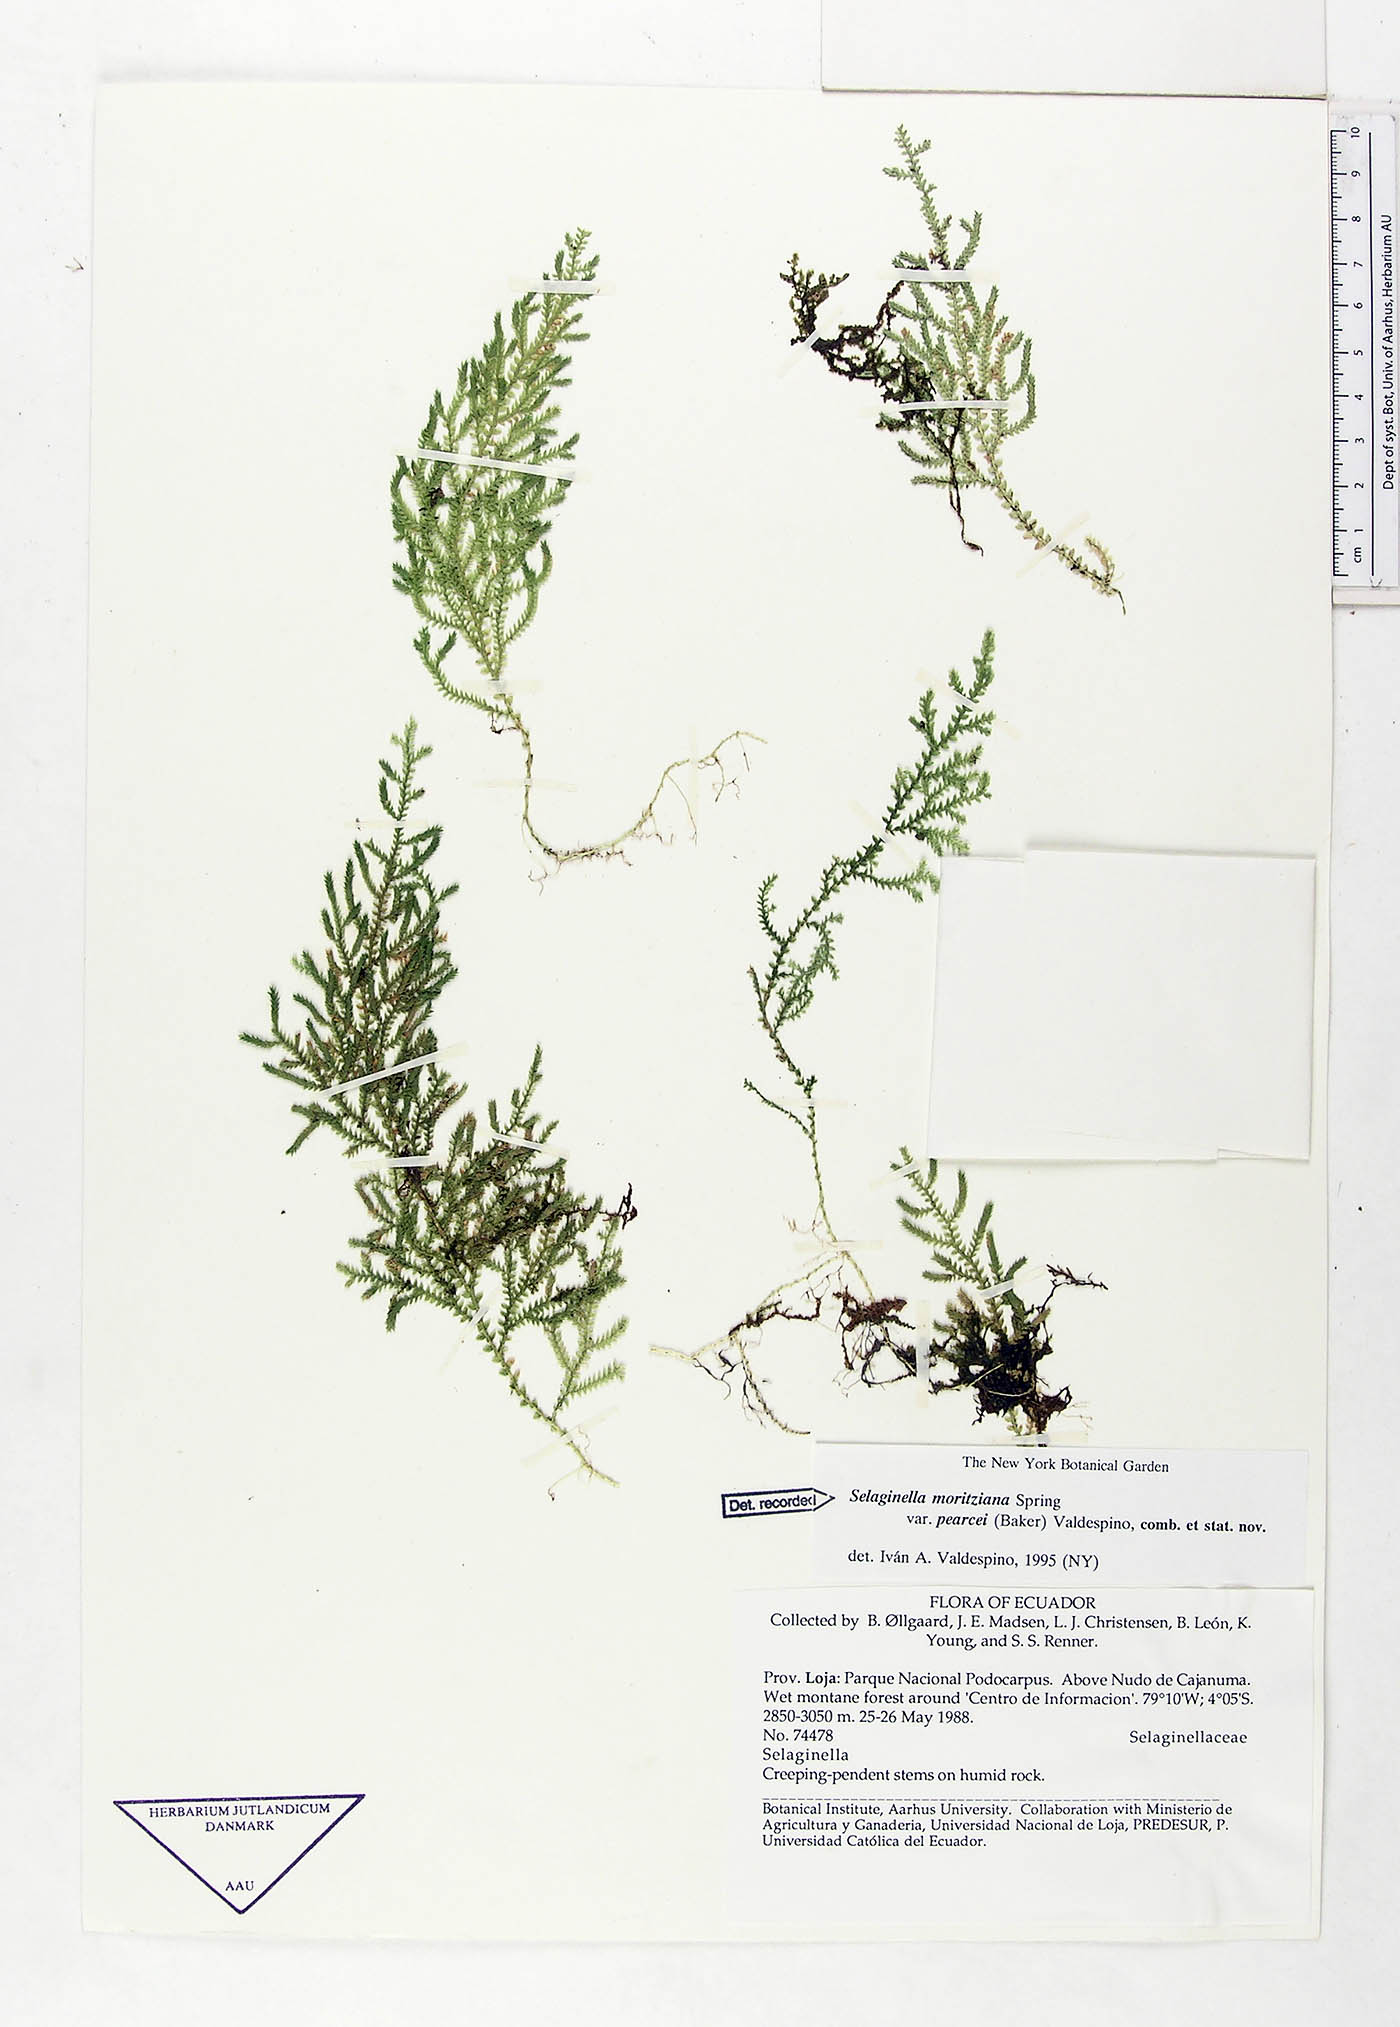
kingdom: Plantae
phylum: Tracheophyta
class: Lycopodiopsida
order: Selaginellales
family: Selaginellaceae
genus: Selaginella
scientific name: Selaginella moritziana
